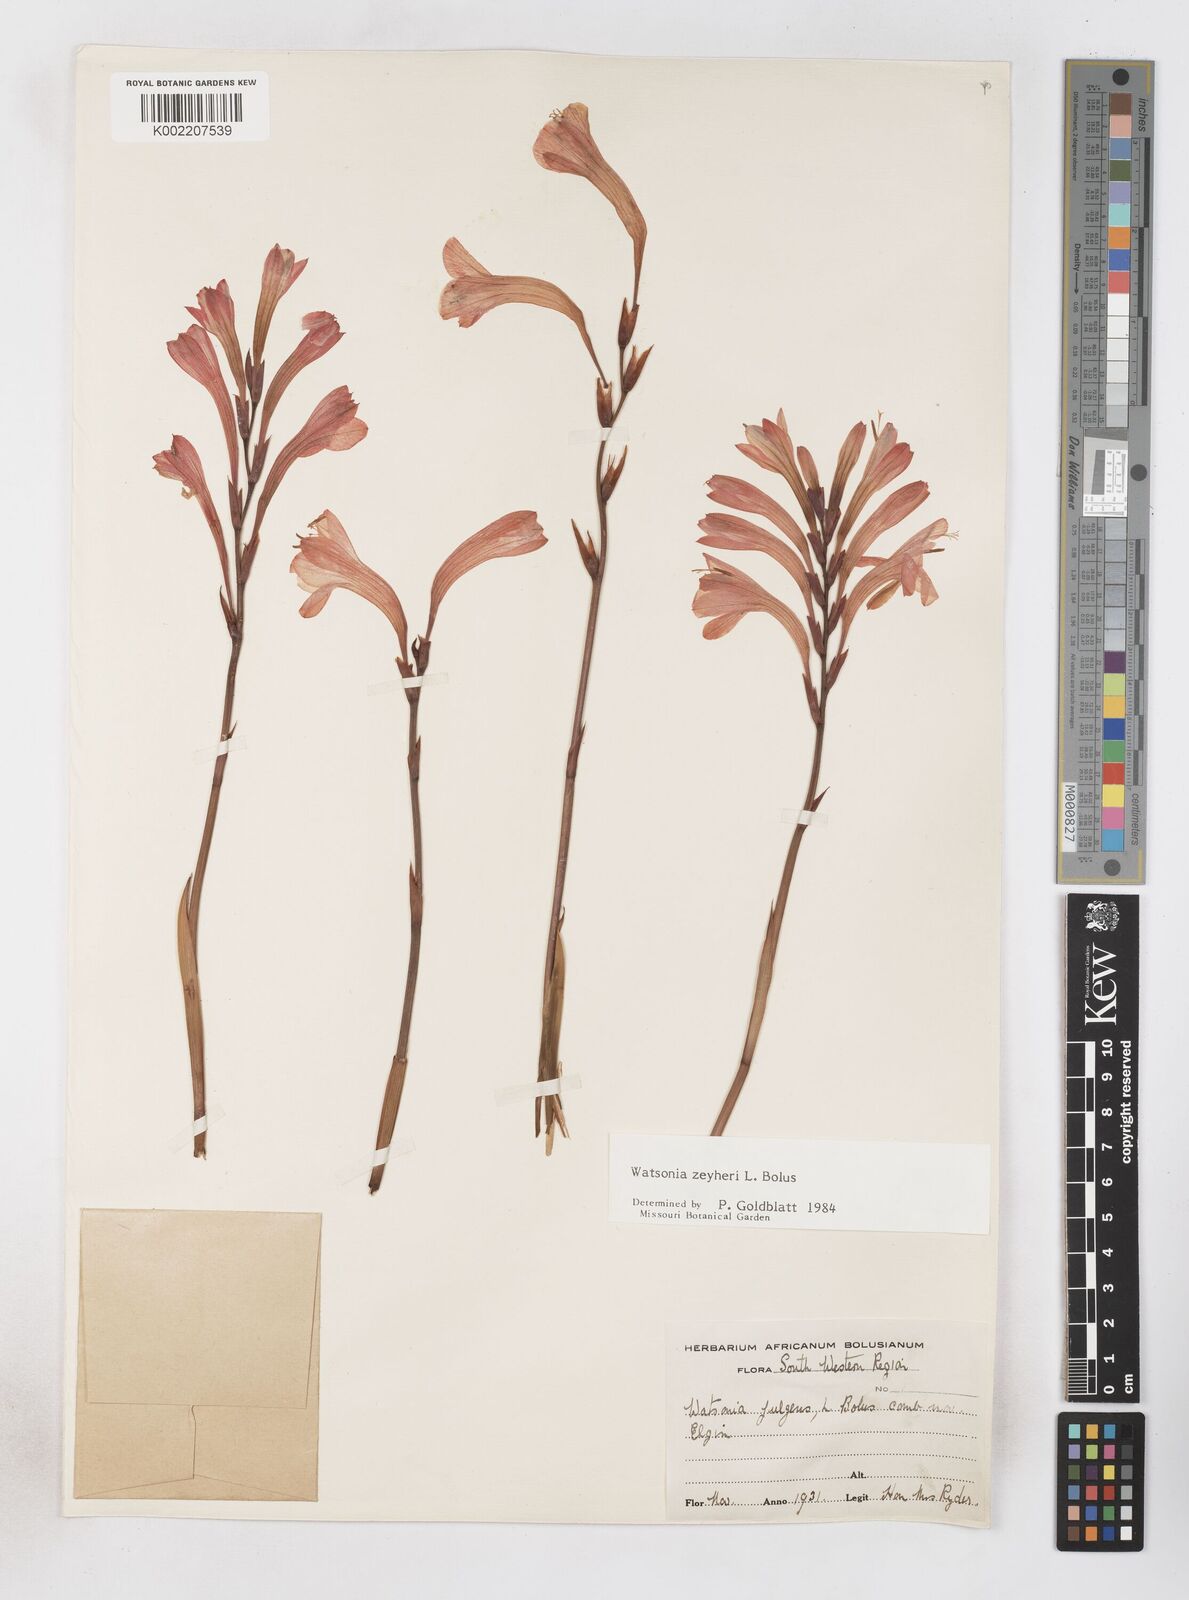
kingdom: Plantae
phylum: Tracheophyta
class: Liliopsida
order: Asparagales
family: Iridaceae
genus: Watsonia
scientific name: Watsonia zeyheri
